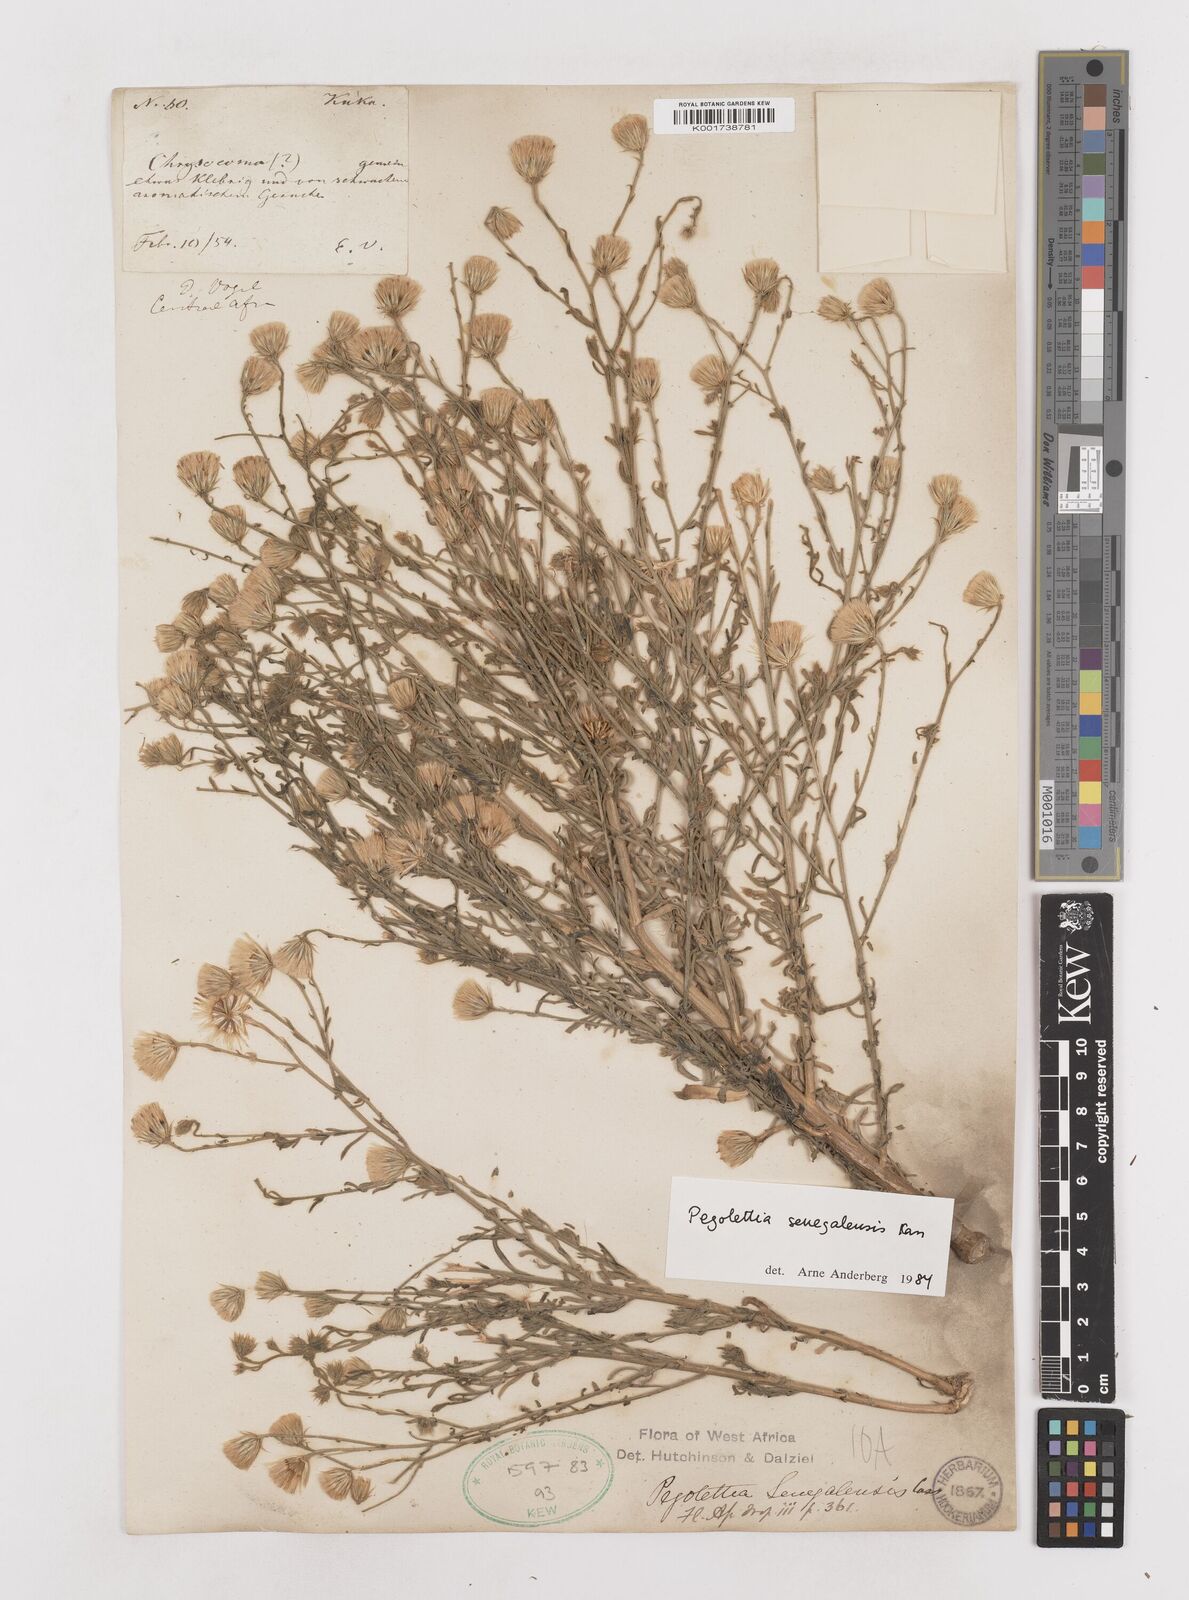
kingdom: Plantae
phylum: Tracheophyta
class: Magnoliopsida
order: Asterales
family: Asteraceae
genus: Pegolettia
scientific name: Pegolettia senegalensis
